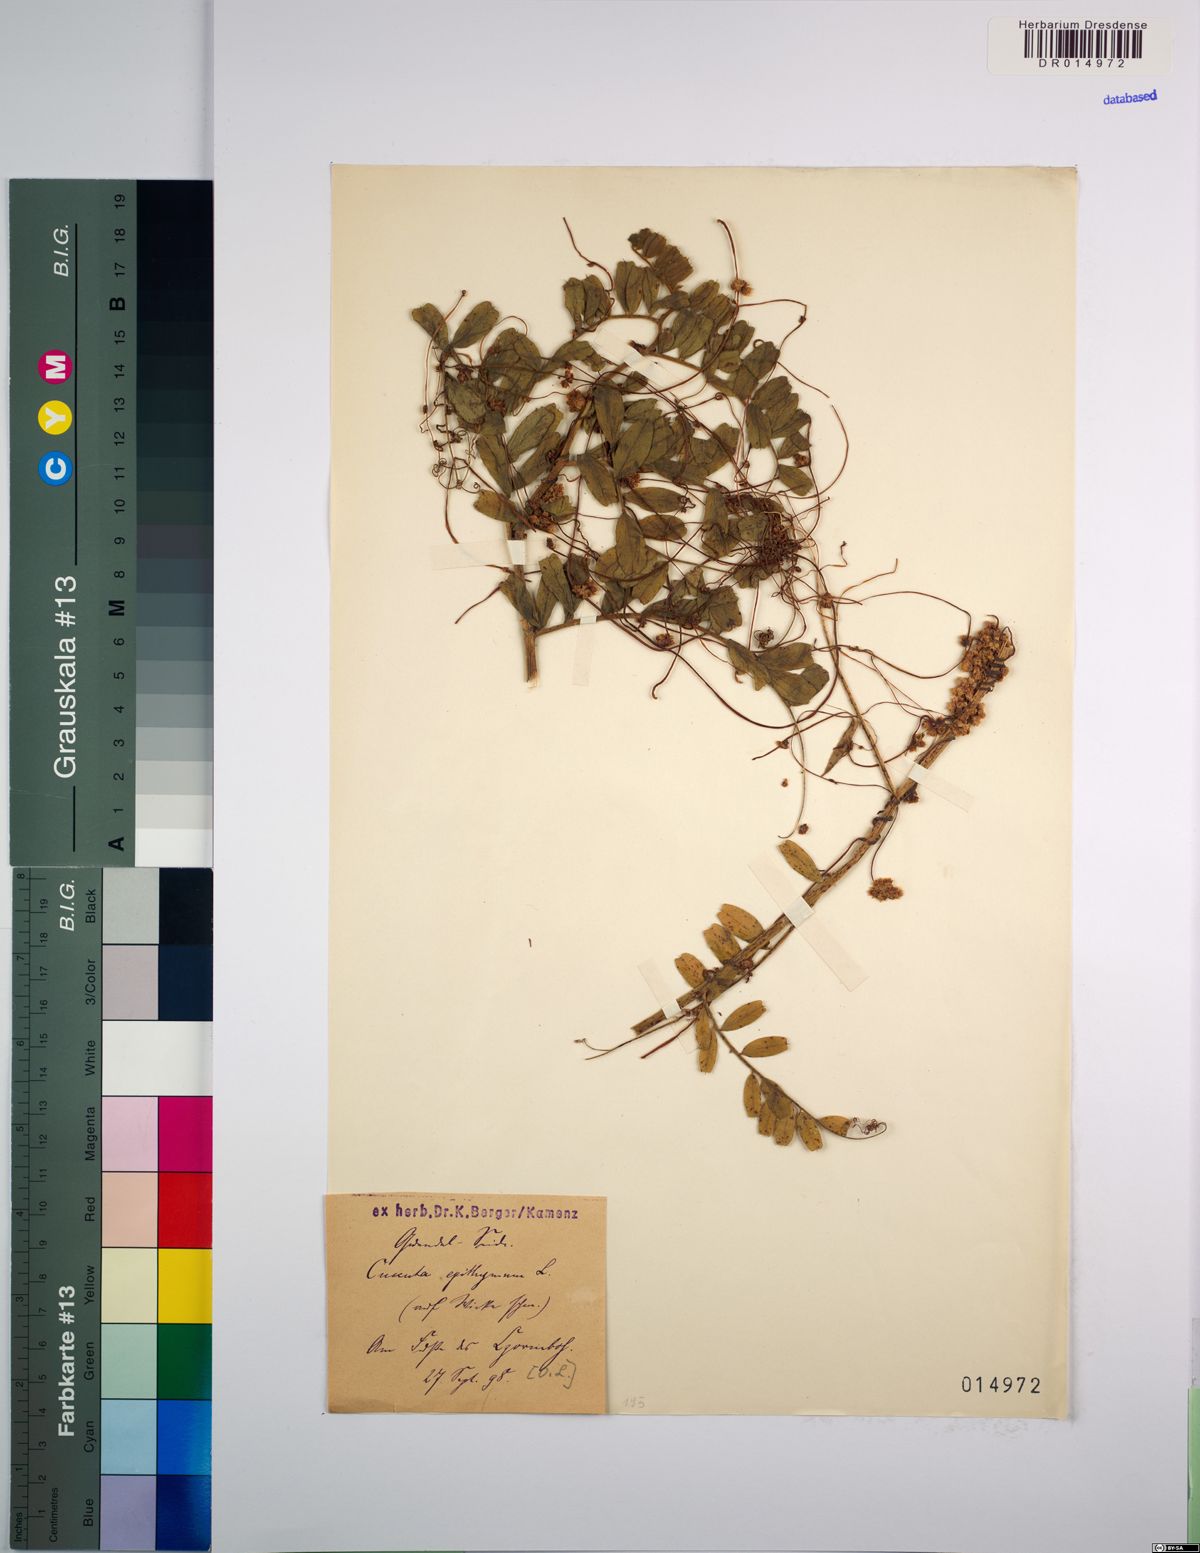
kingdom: Plantae
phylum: Tracheophyta
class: Magnoliopsida
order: Solanales
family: Convolvulaceae
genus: Cuscuta
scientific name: Cuscuta epithymum
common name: Clover dodder
